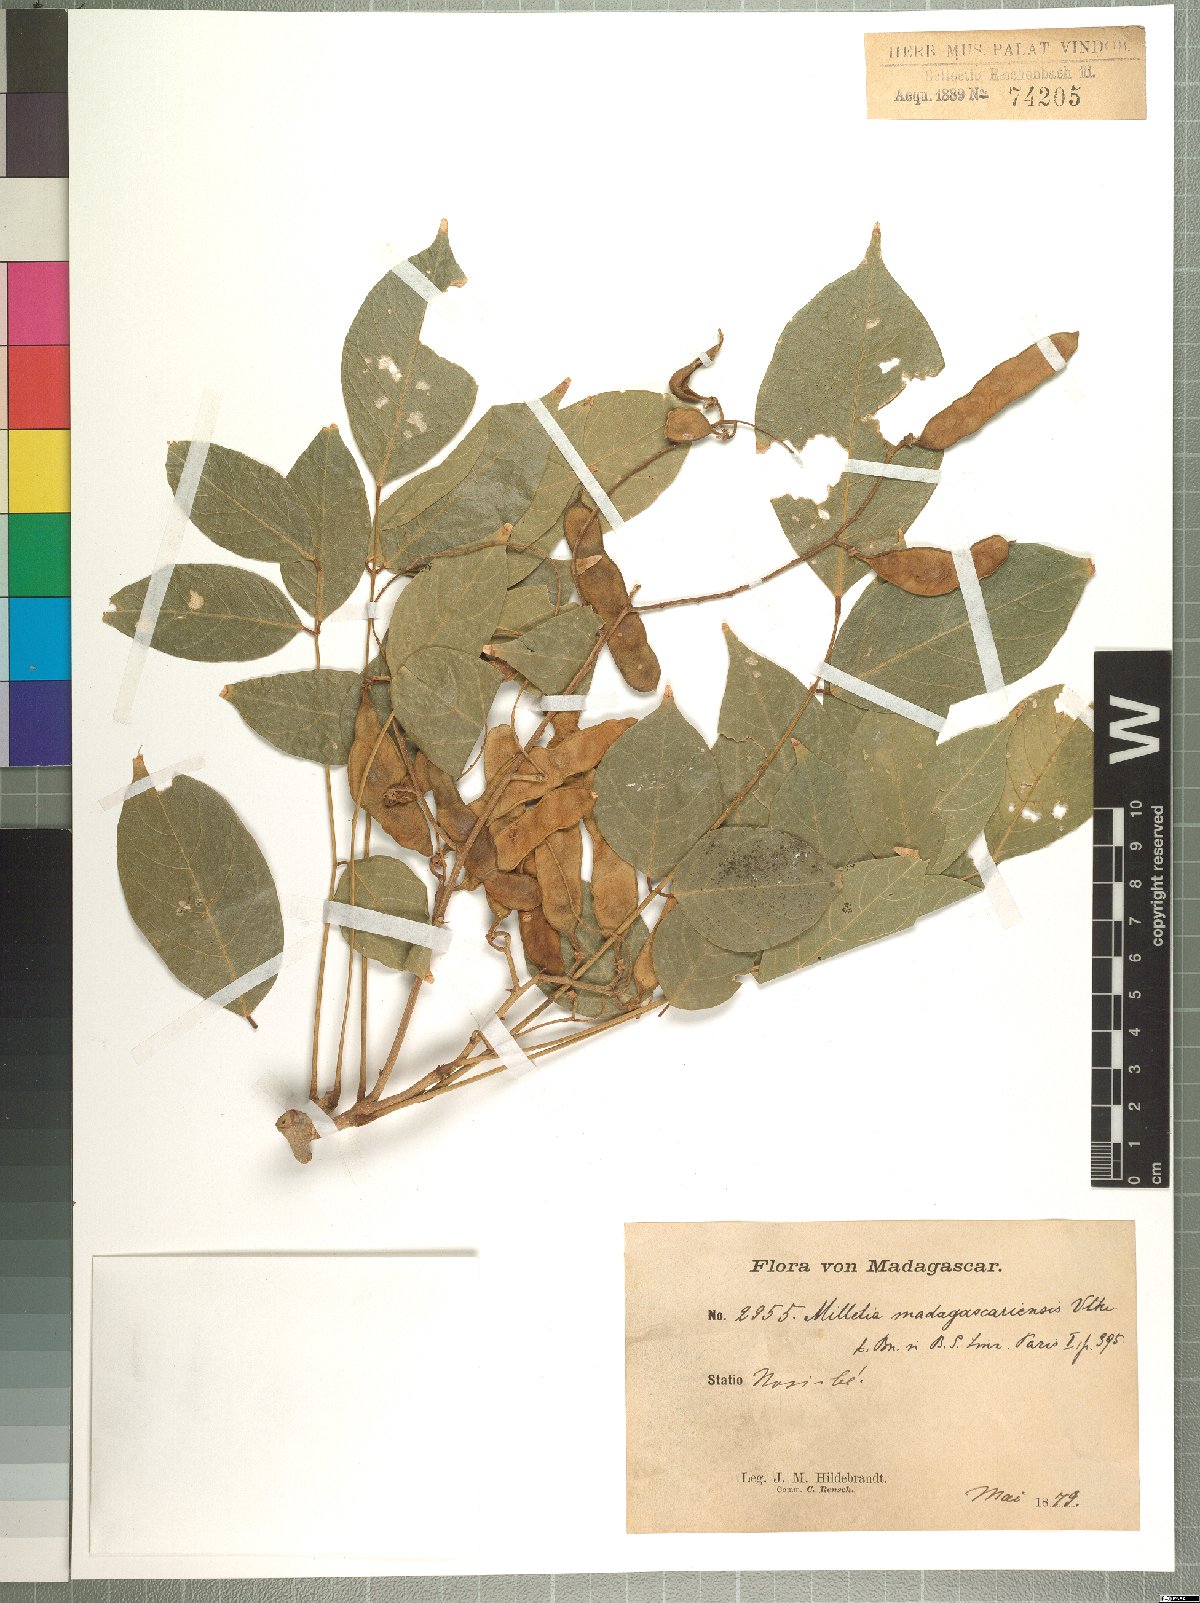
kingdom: Plantae
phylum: Tracheophyta
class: Magnoliopsida
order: Fabales
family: Fabaceae
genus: Lonchocarpus
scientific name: Lonchocarpus madagascariensis
